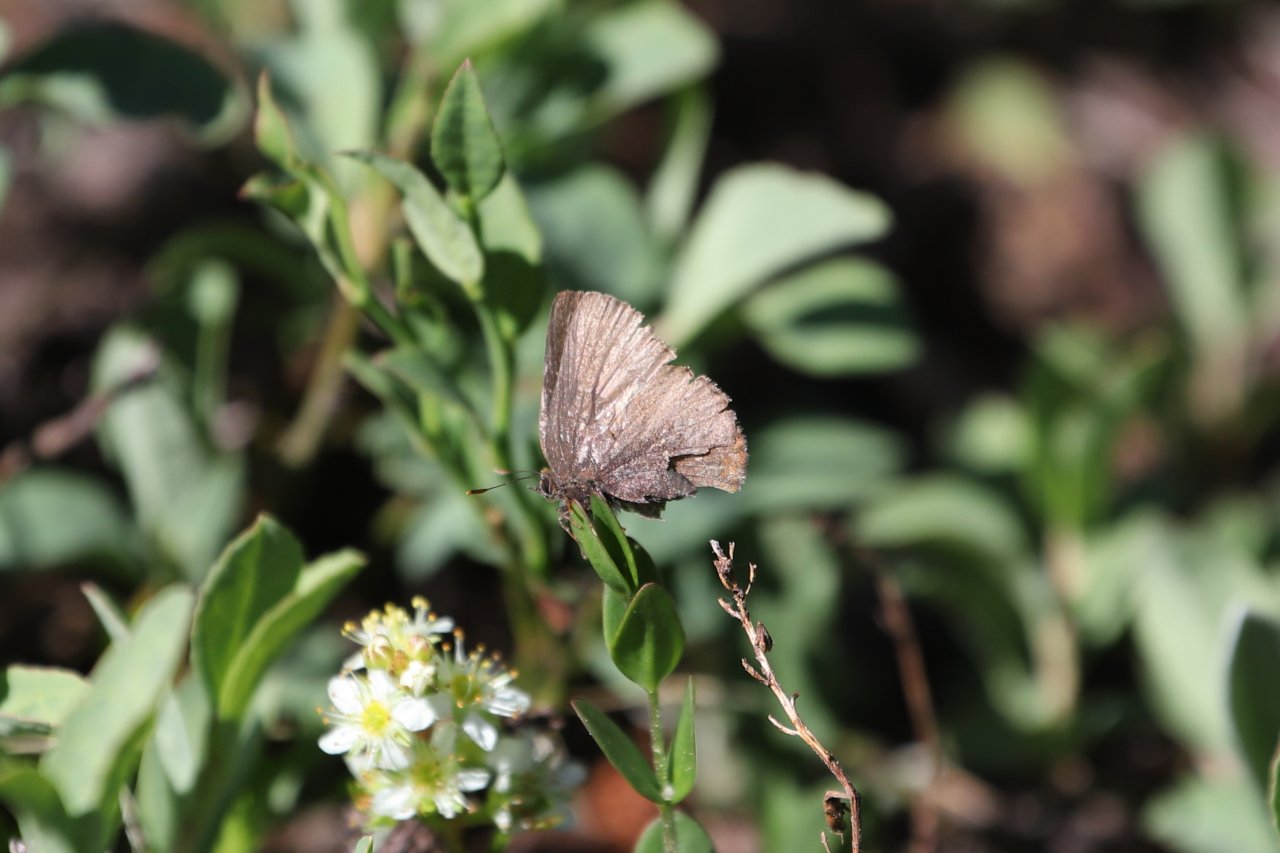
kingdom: Animalia
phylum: Arthropoda
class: Insecta
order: Lepidoptera
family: Lycaenidae
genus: Incisalia
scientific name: Incisalia irioides
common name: Brown Elfin
